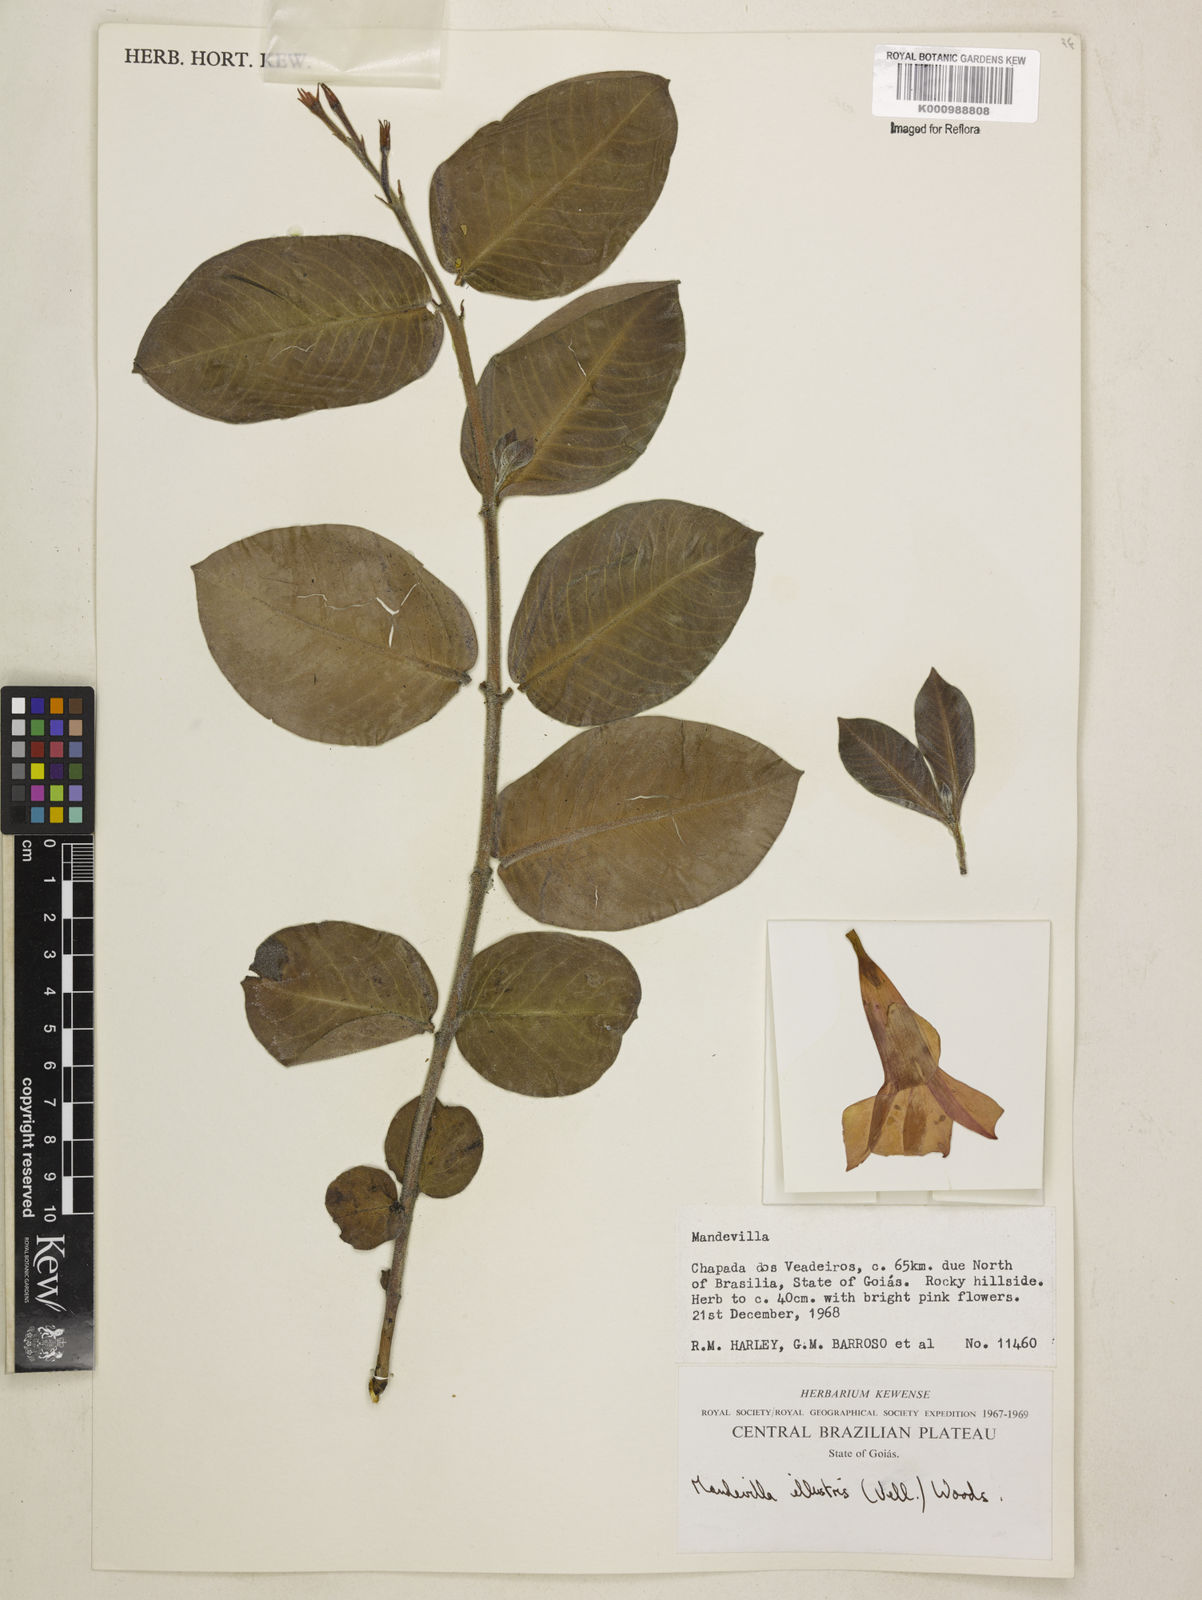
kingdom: Plantae
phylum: Tracheophyta
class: Magnoliopsida
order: Gentianales
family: Apocynaceae
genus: Mandevilla
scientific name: Mandevilla pohliana
